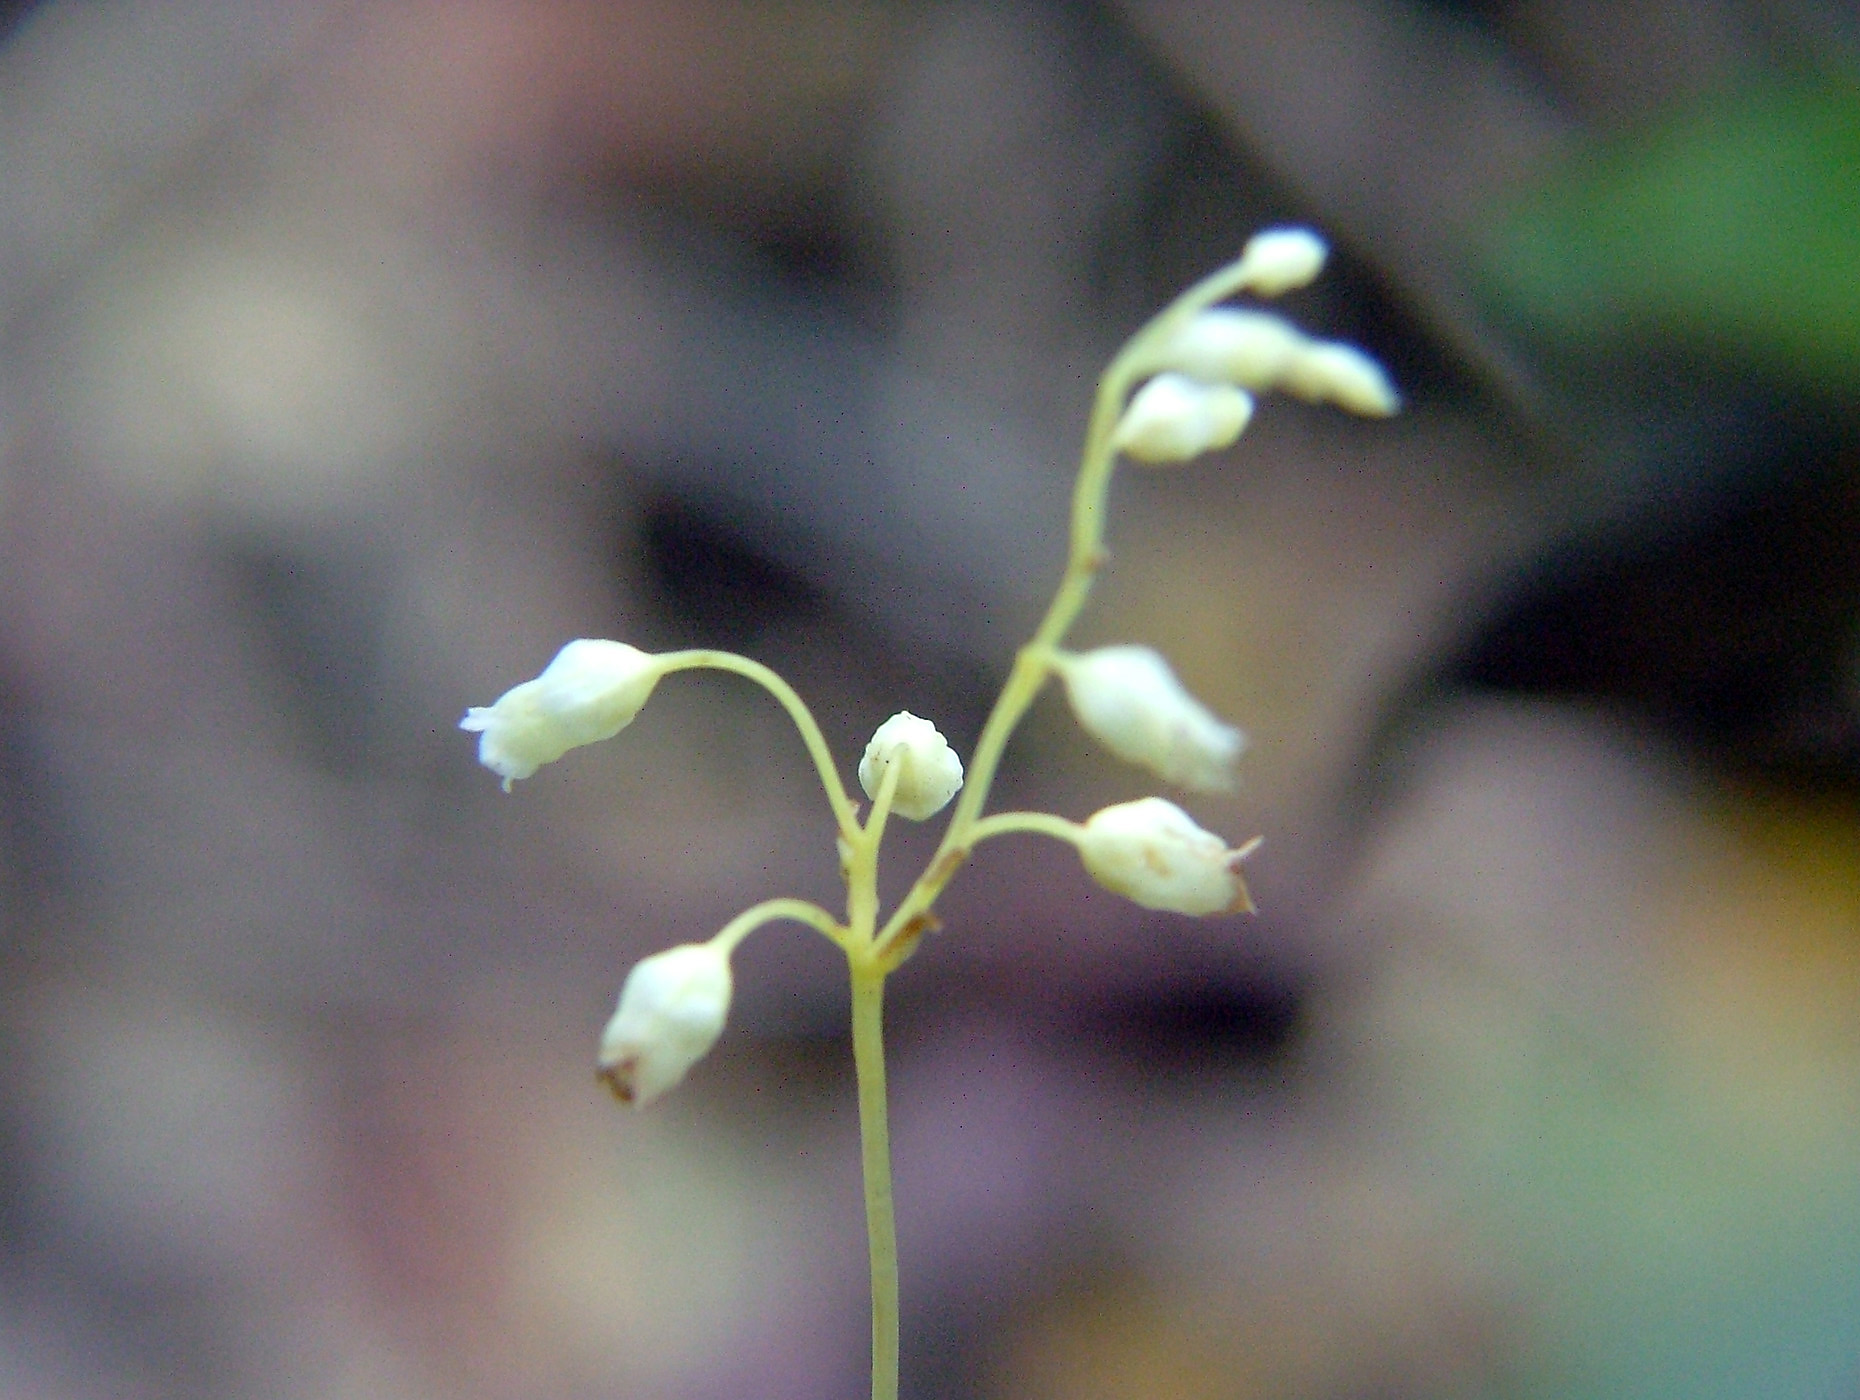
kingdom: Plantae
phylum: Tracheophyta
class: Magnoliopsida
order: Gentianales
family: Gentianaceae
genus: Voyria
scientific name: Voyria
